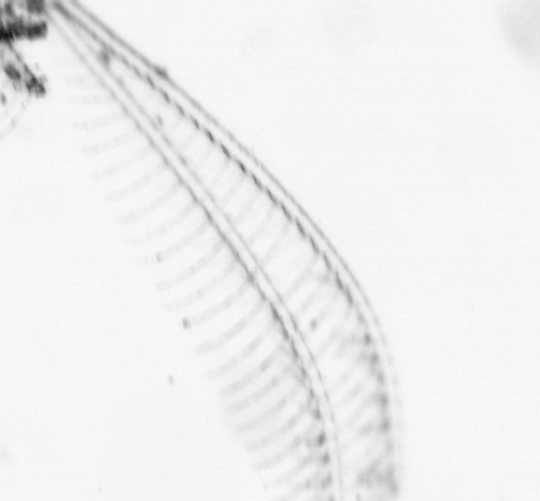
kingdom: Animalia
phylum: Arthropoda
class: Maxillopoda
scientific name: Maxillopoda
